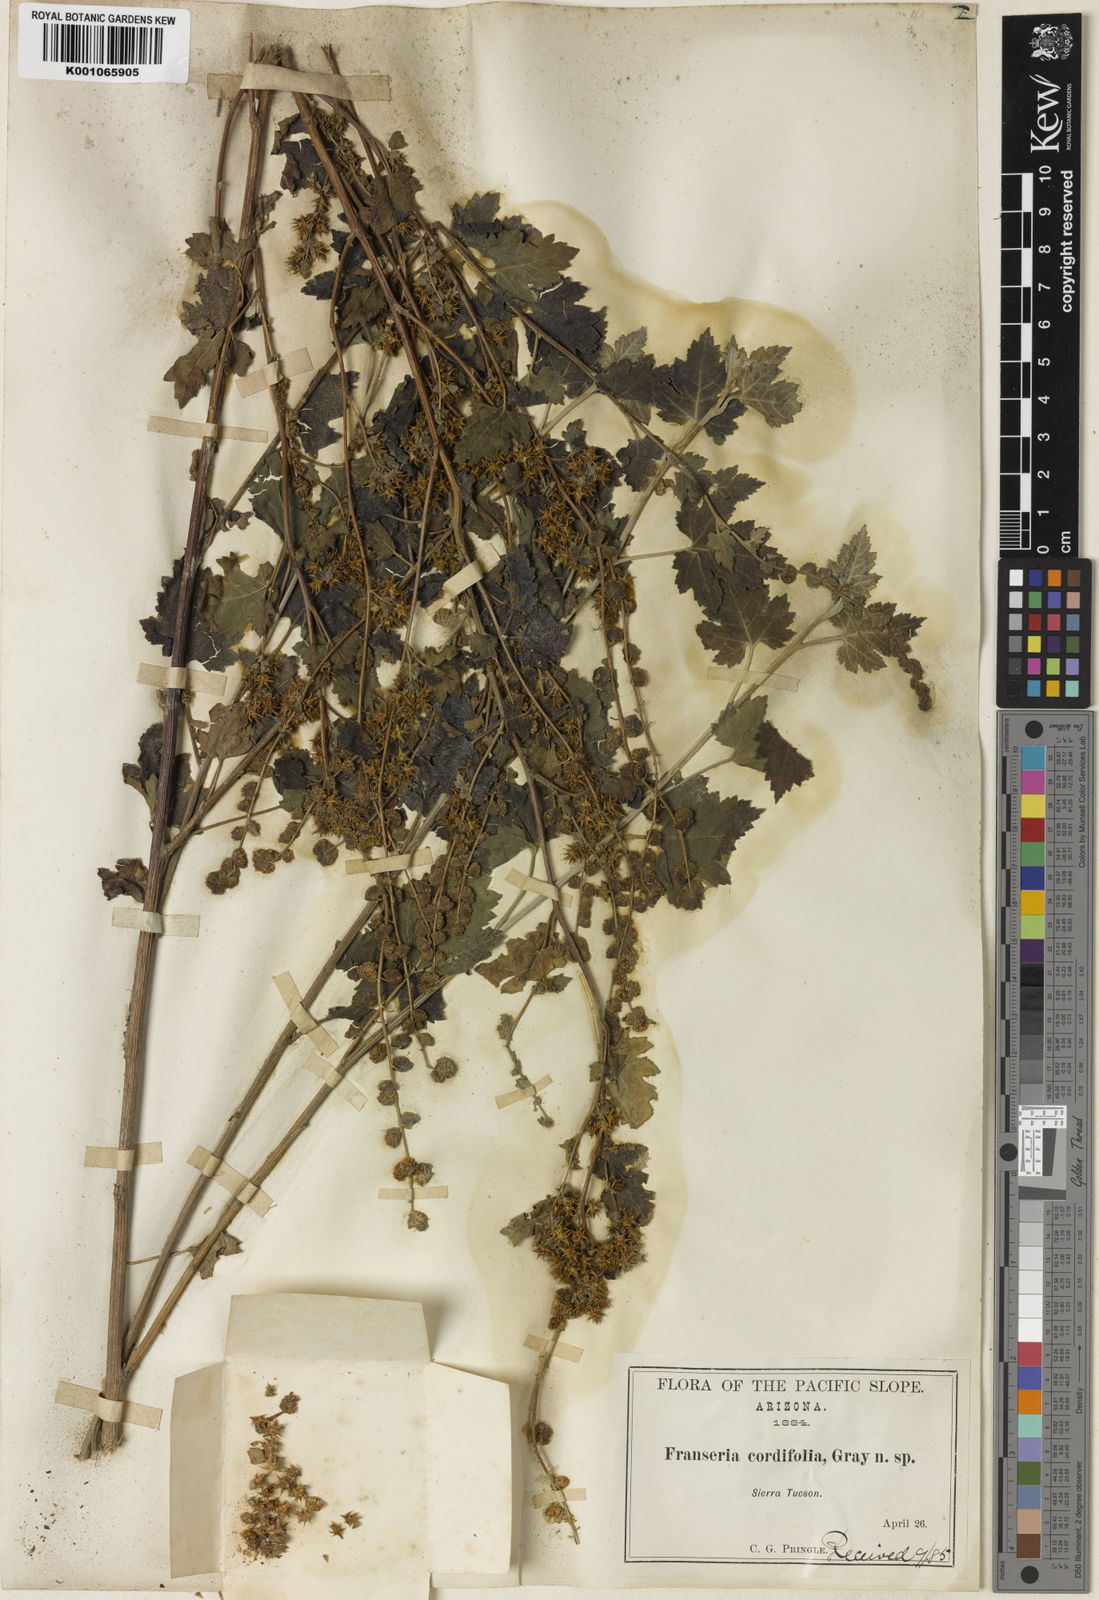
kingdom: Plantae
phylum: Tracheophyta
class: Magnoliopsida
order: Asterales
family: Asteraceae
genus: Ambrosia
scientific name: Ambrosia cordifolia
